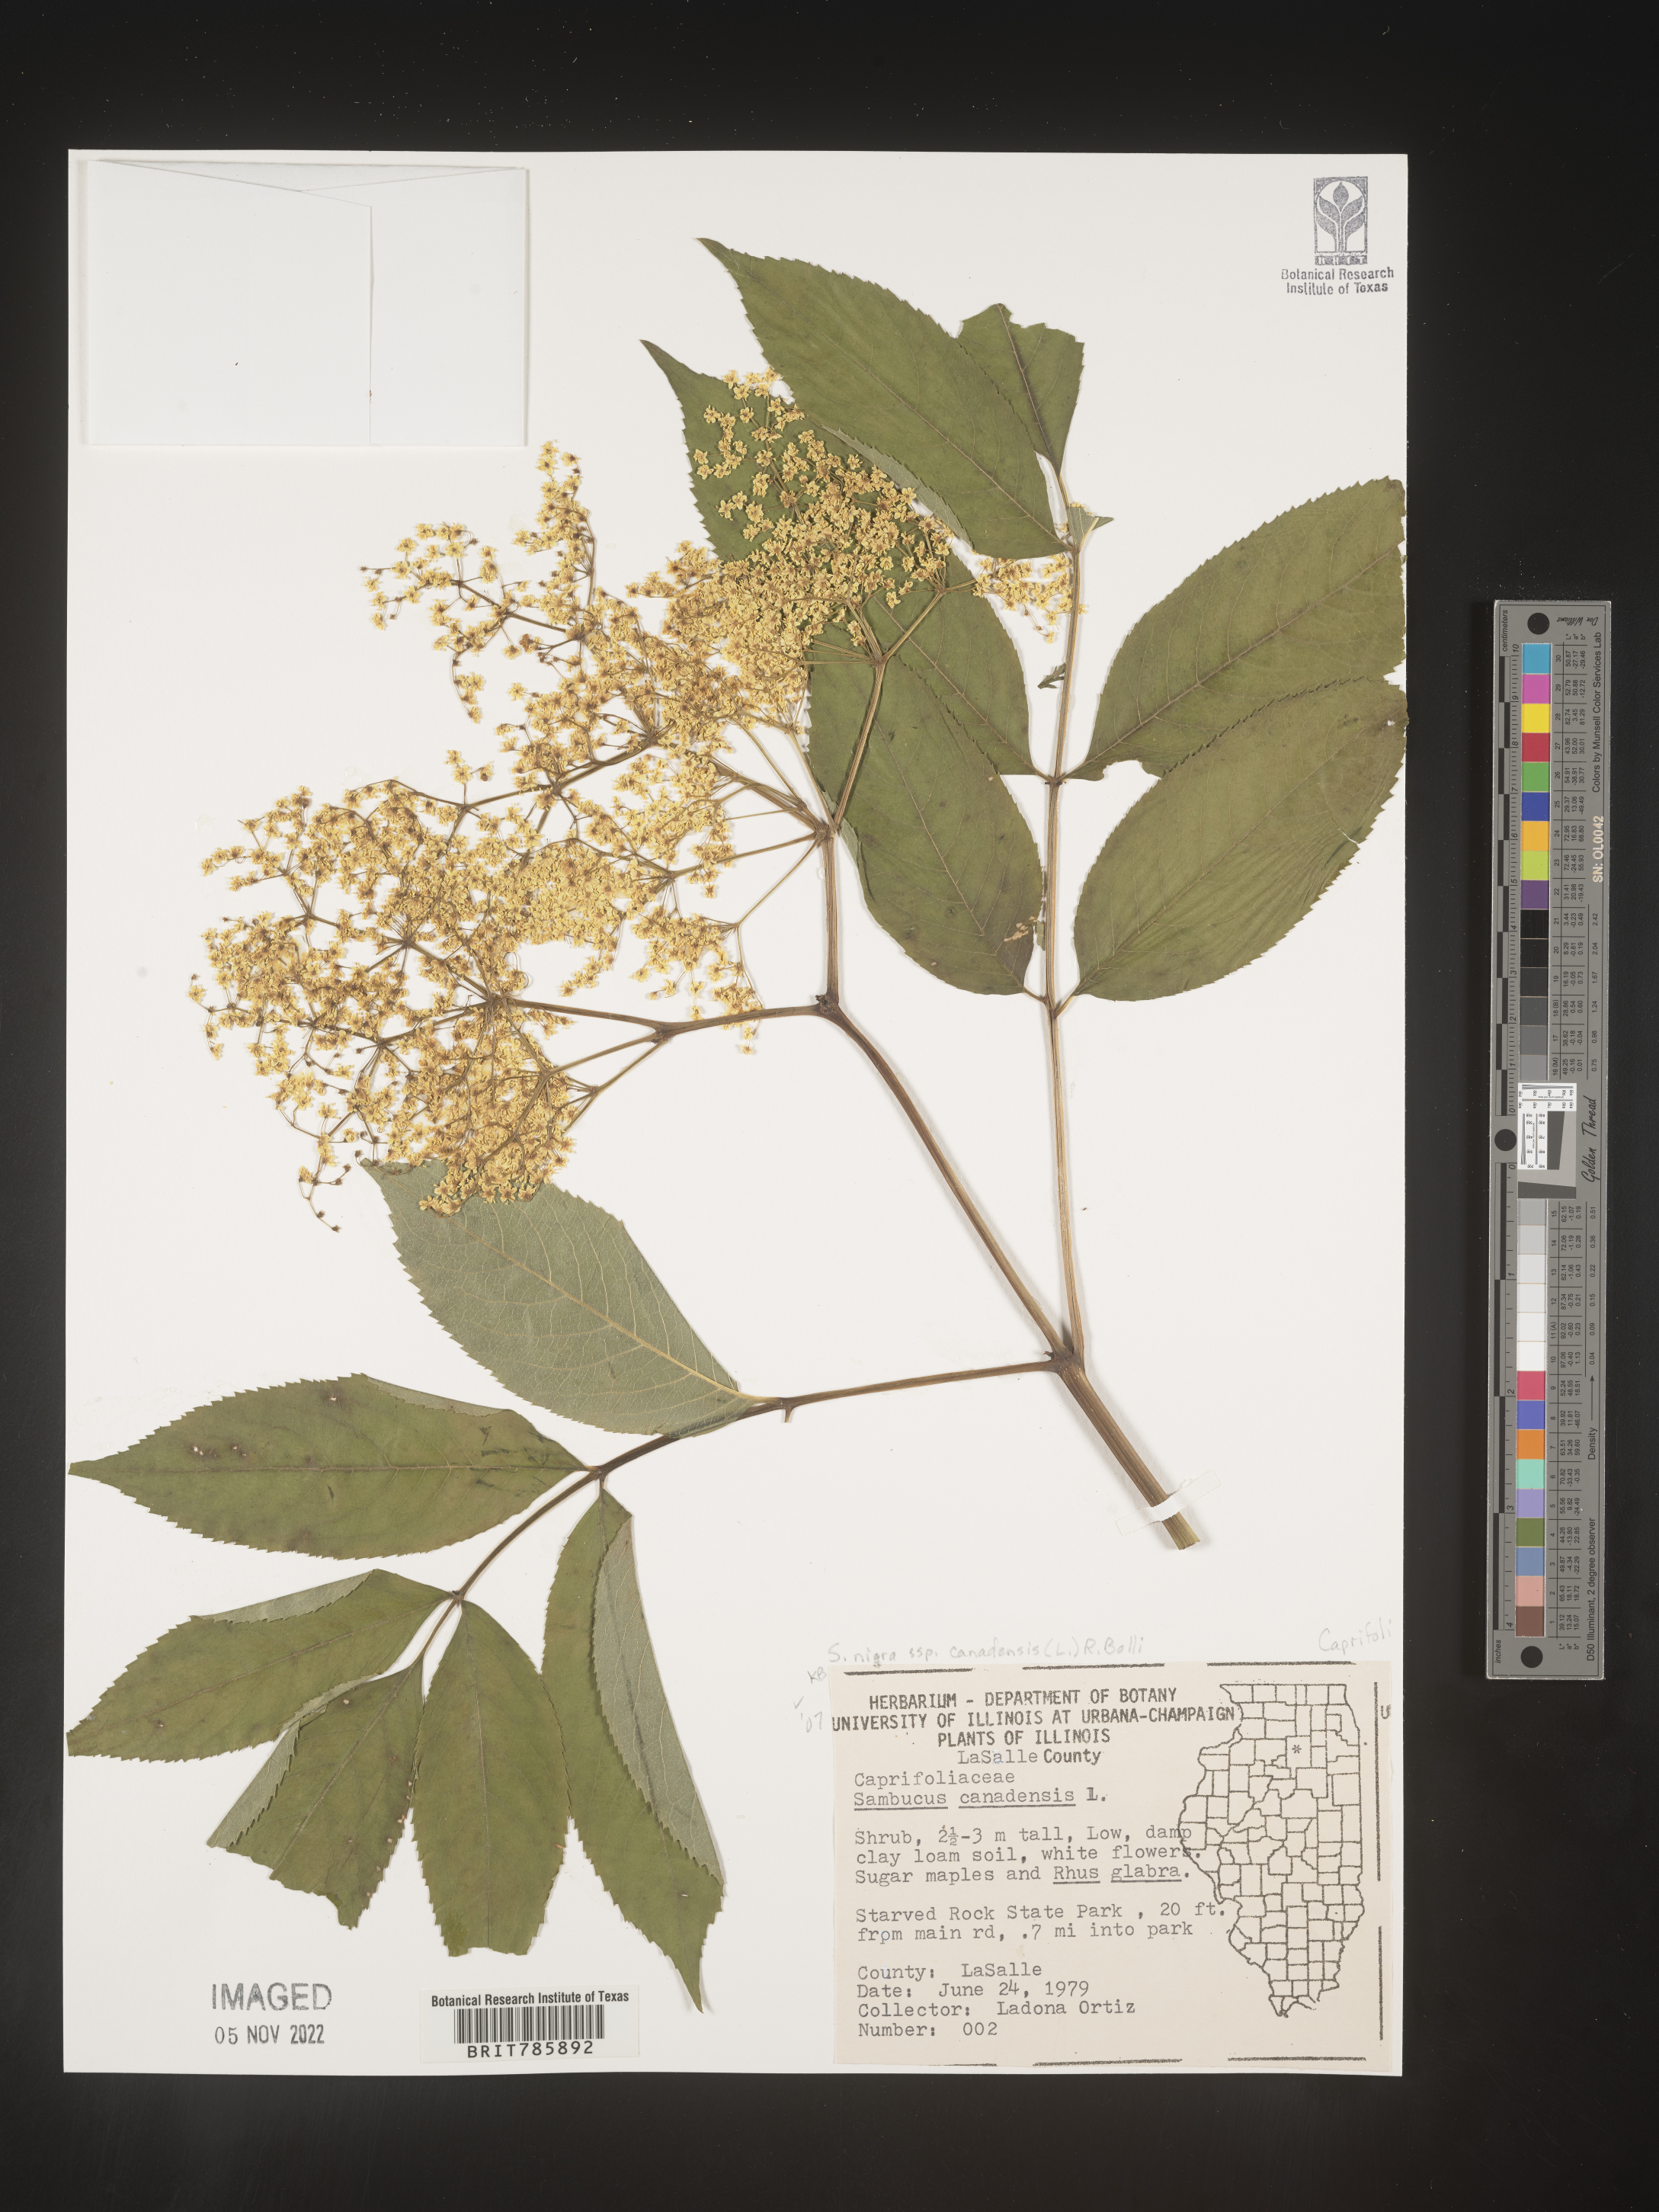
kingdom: Plantae
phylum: Tracheophyta
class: Magnoliopsida
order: Dipsacales
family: Viburnaceae
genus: Sambucus
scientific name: Sambucus nigra
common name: Elder
